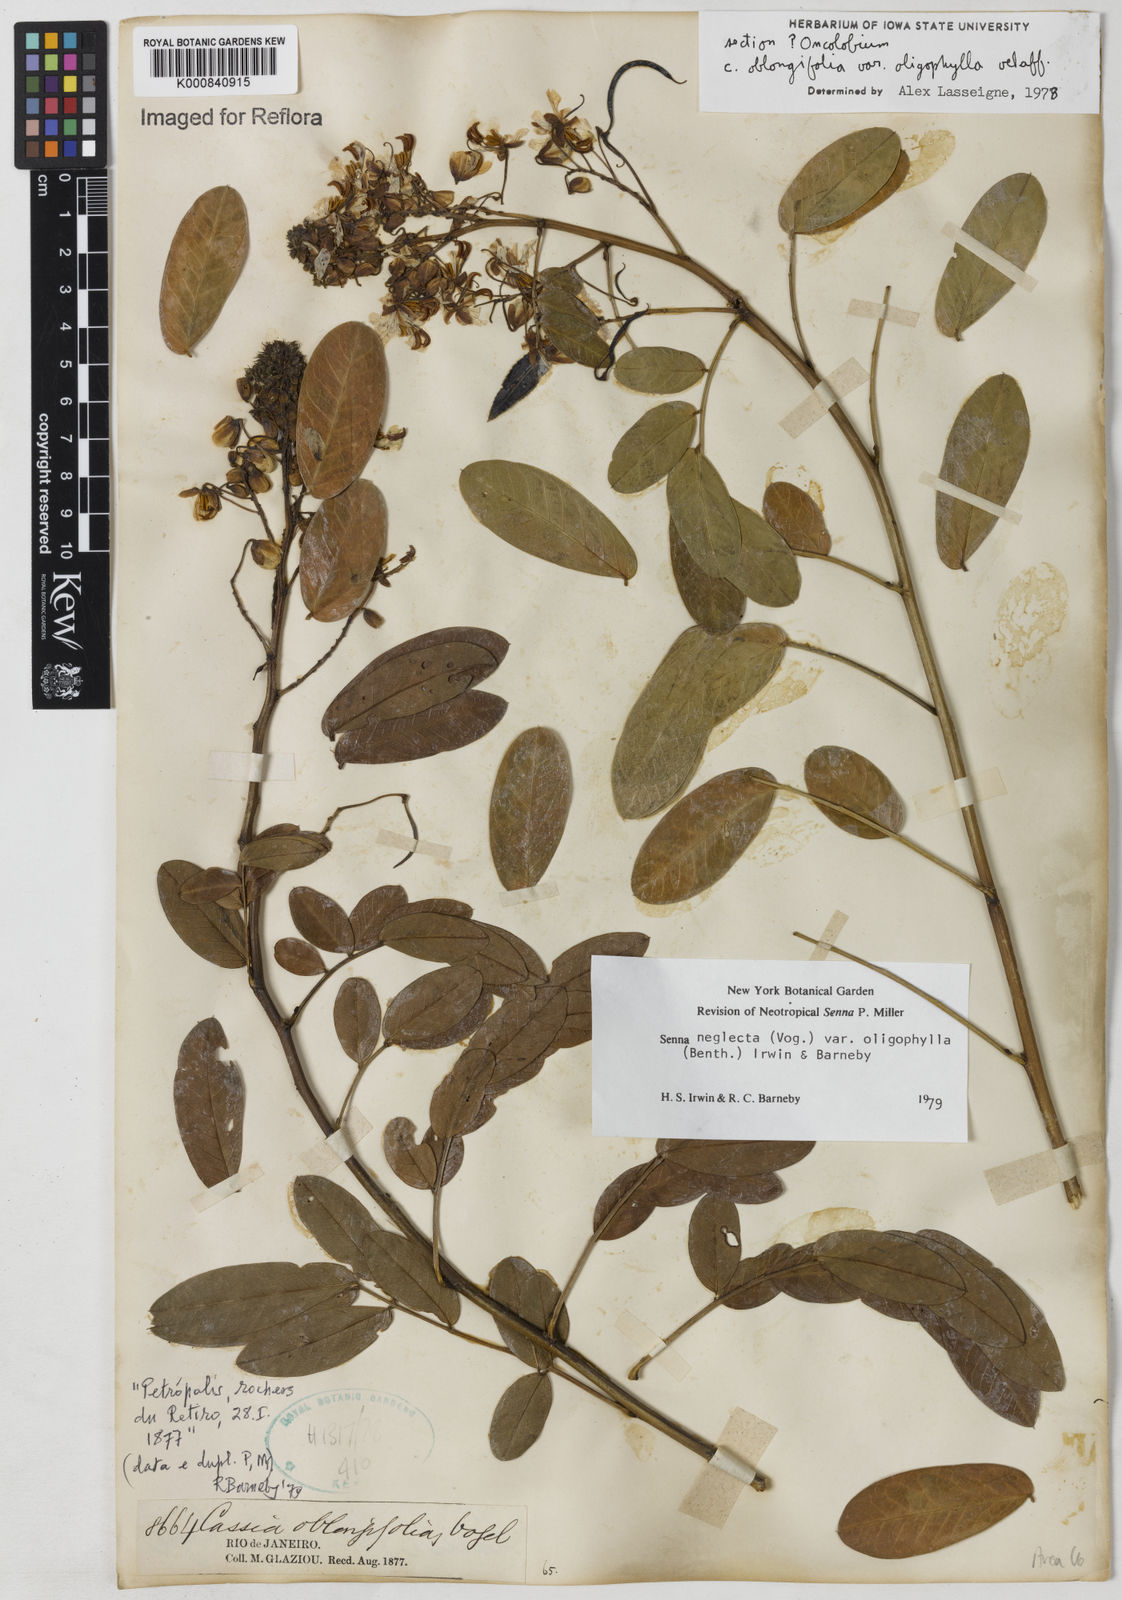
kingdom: Plantae
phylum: Tracheophyta
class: Magnoliopsida
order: Fabales
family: Fabaceae
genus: Senna
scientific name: Senna neglecta
